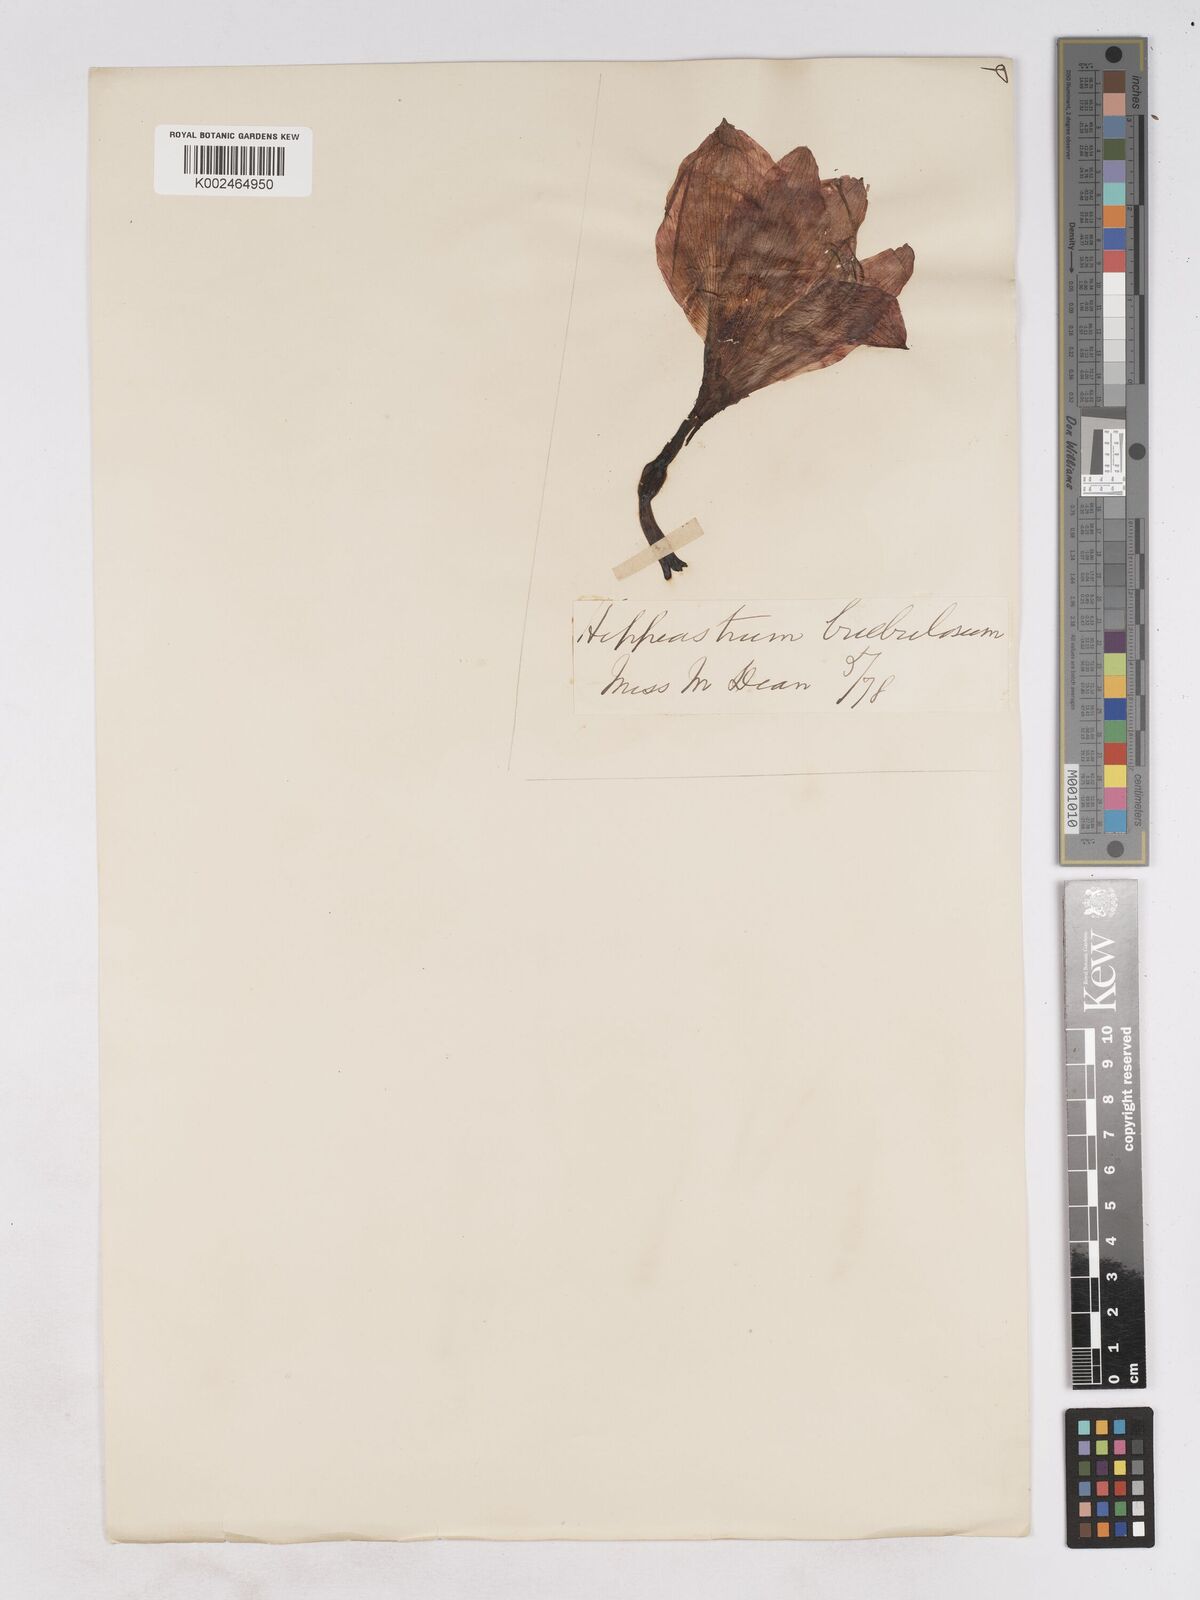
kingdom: Plantae
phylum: Tracheophyta
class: Liliopsida
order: Asparagales
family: Amaryllidaceae
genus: Hippeastrum
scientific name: Hippeastrum striatum
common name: Striped barbados lily
